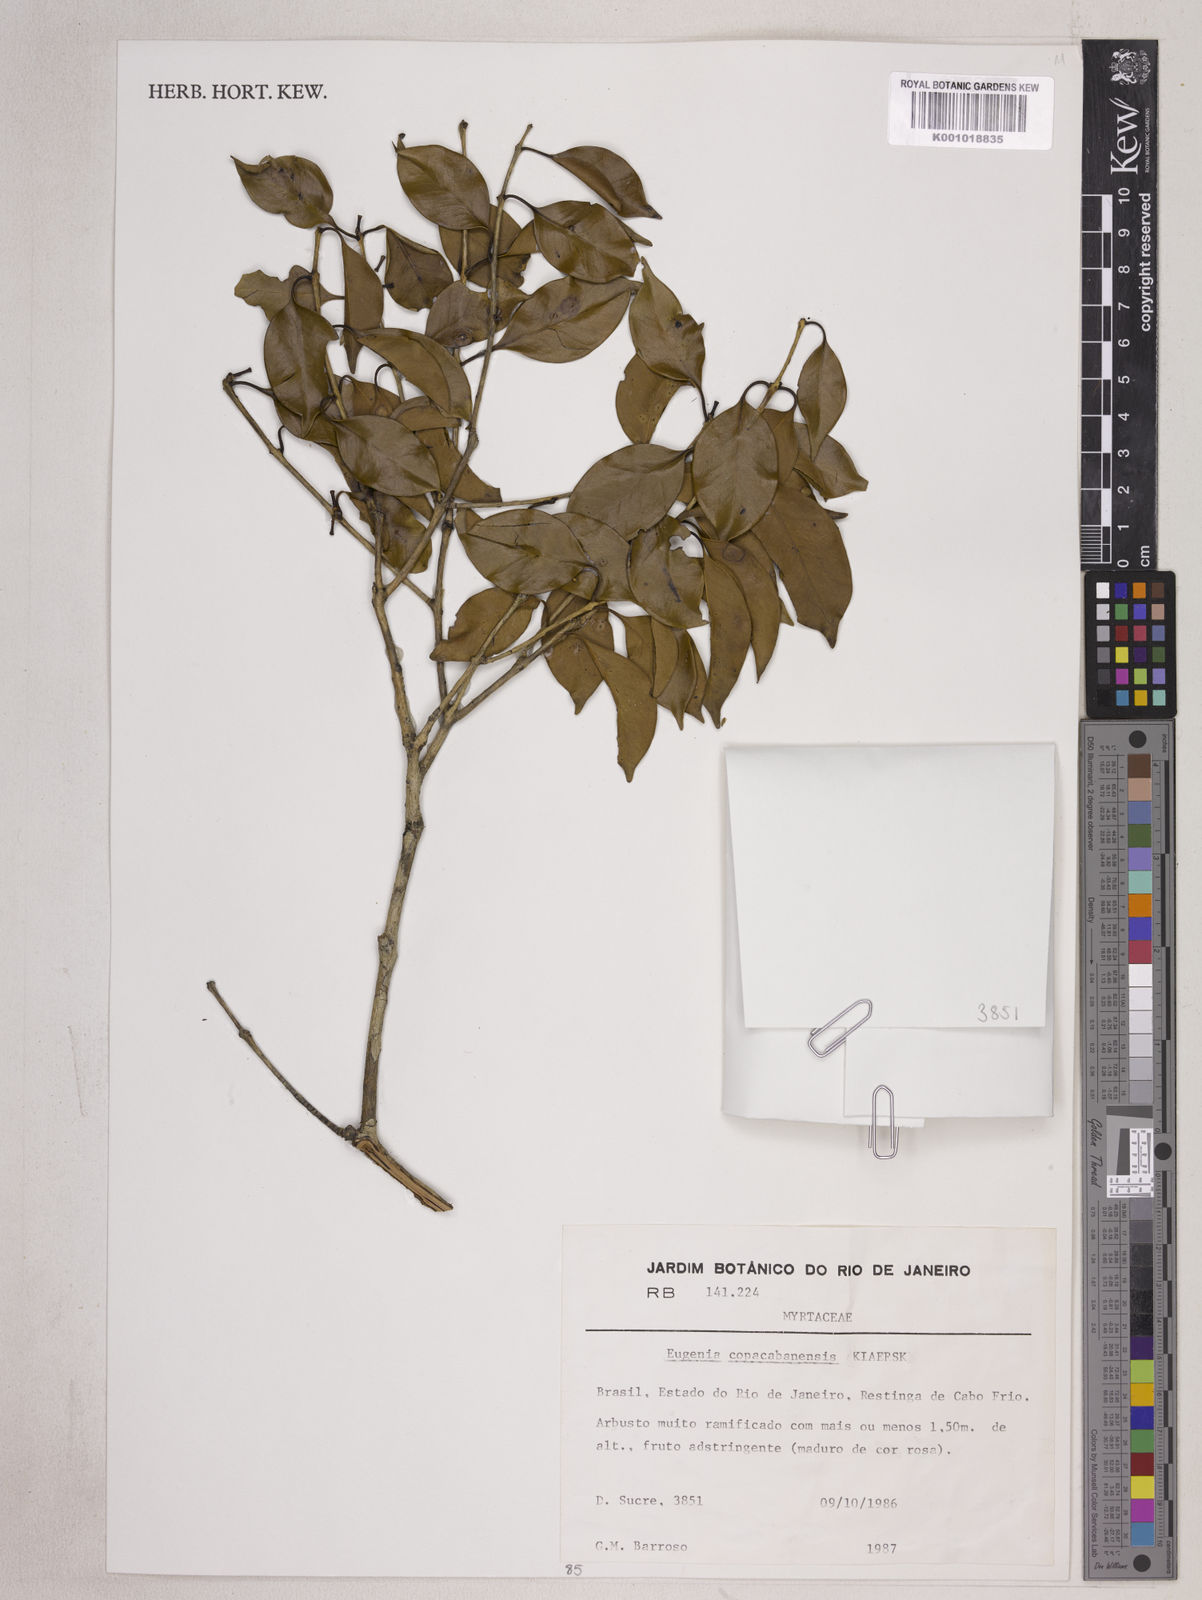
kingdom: Plantae
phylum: Tracheophyta
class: Magnoliopsida
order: Myrtales
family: Myrtaceae
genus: Eugenia
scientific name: Eugenia copacabanensis
